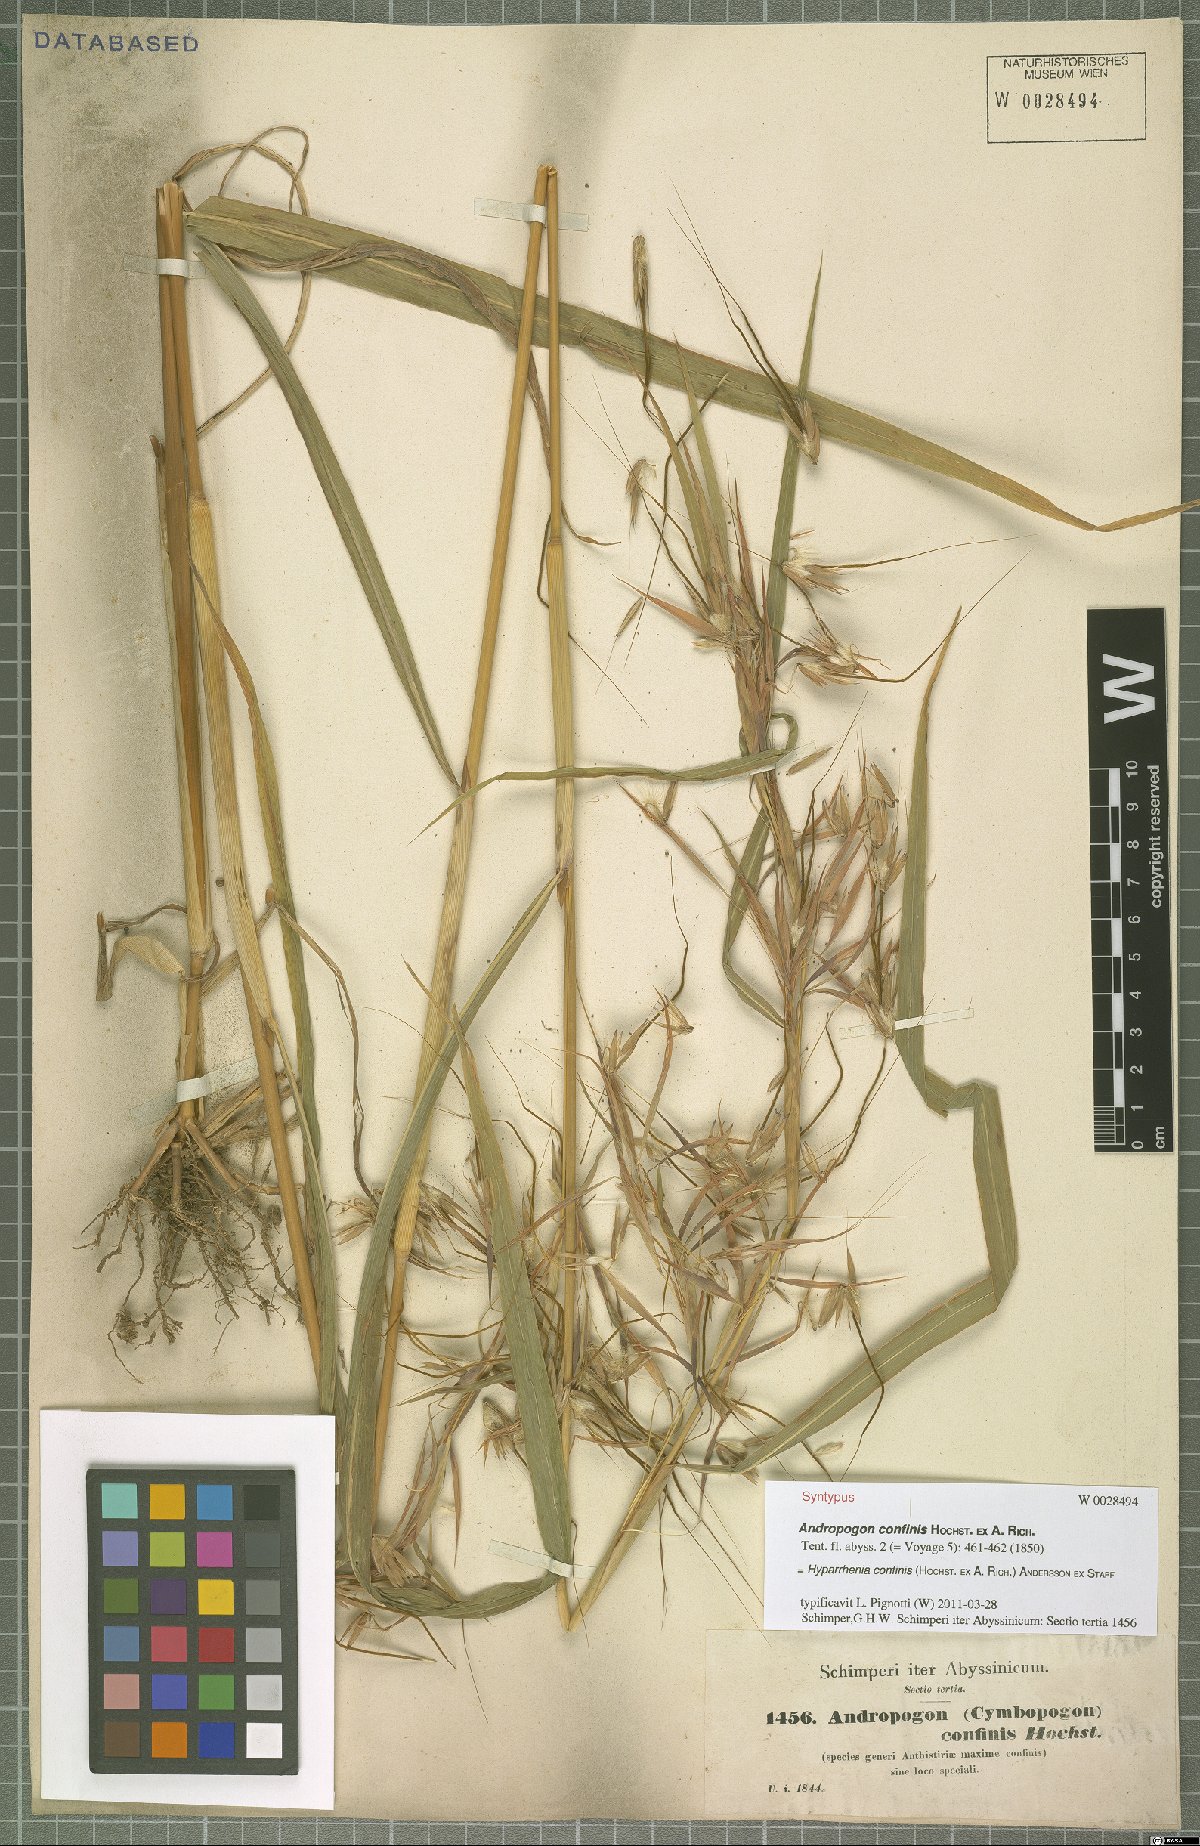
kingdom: Plantae
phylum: Tracheophyta
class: Liliopsida
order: Poales
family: Poaceae
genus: Hyparrhenia
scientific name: Hyparrhenia confinis
